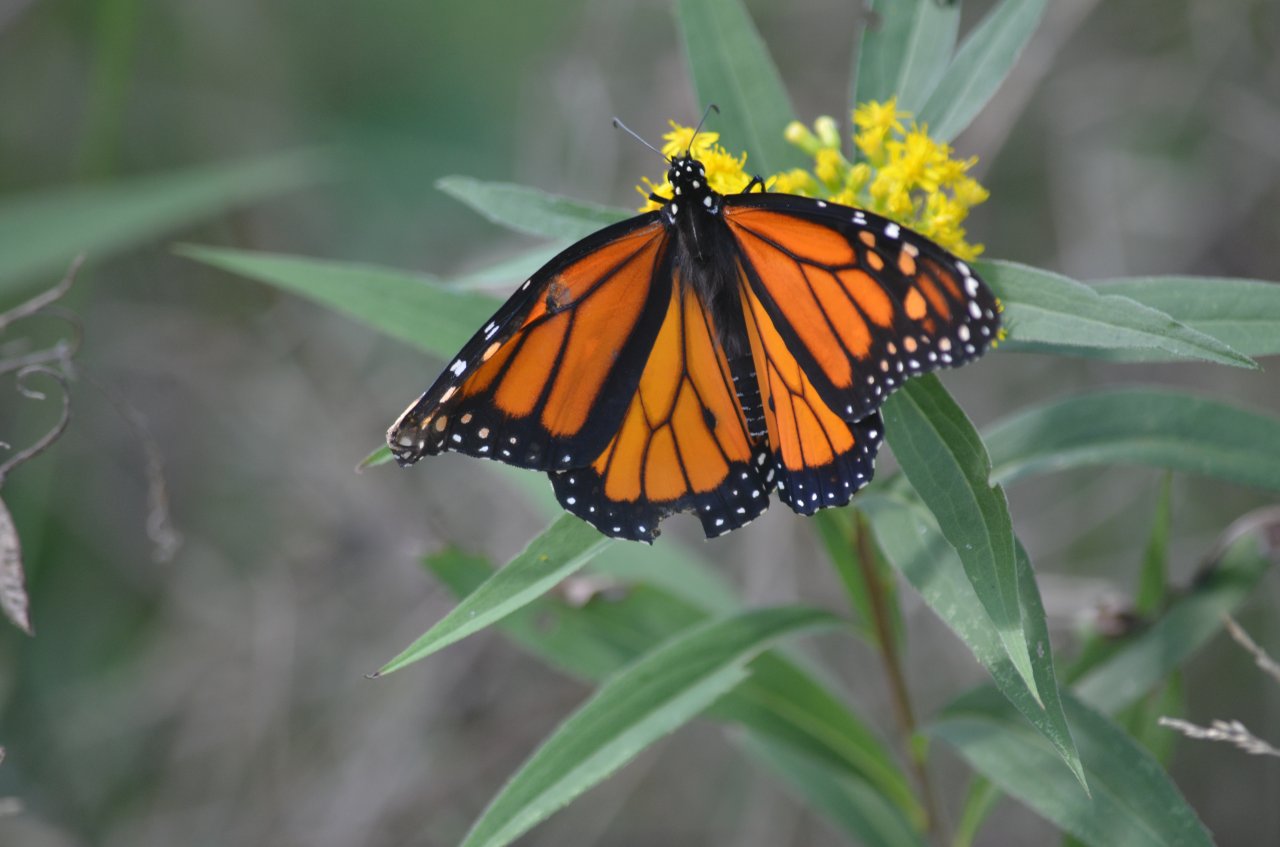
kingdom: Animalia
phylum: Arthropoda
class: Insecta
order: Lepidoptera
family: Nymphalidae
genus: Danaus
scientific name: Danaus plexippus
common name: Monarch
